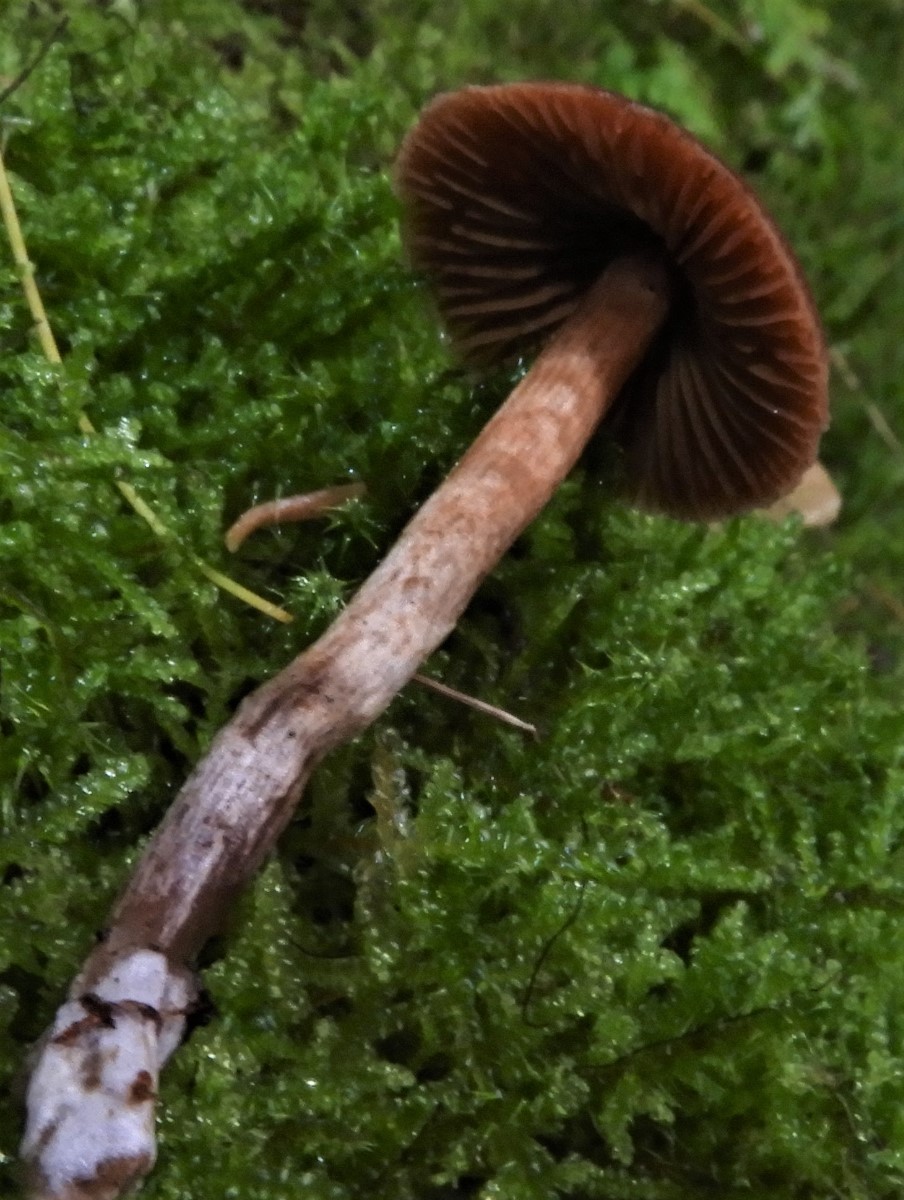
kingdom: Fungi
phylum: Basidiomycota
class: Agaricomycetes
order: Agaricales
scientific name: Agaricales
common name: champignonordenen
